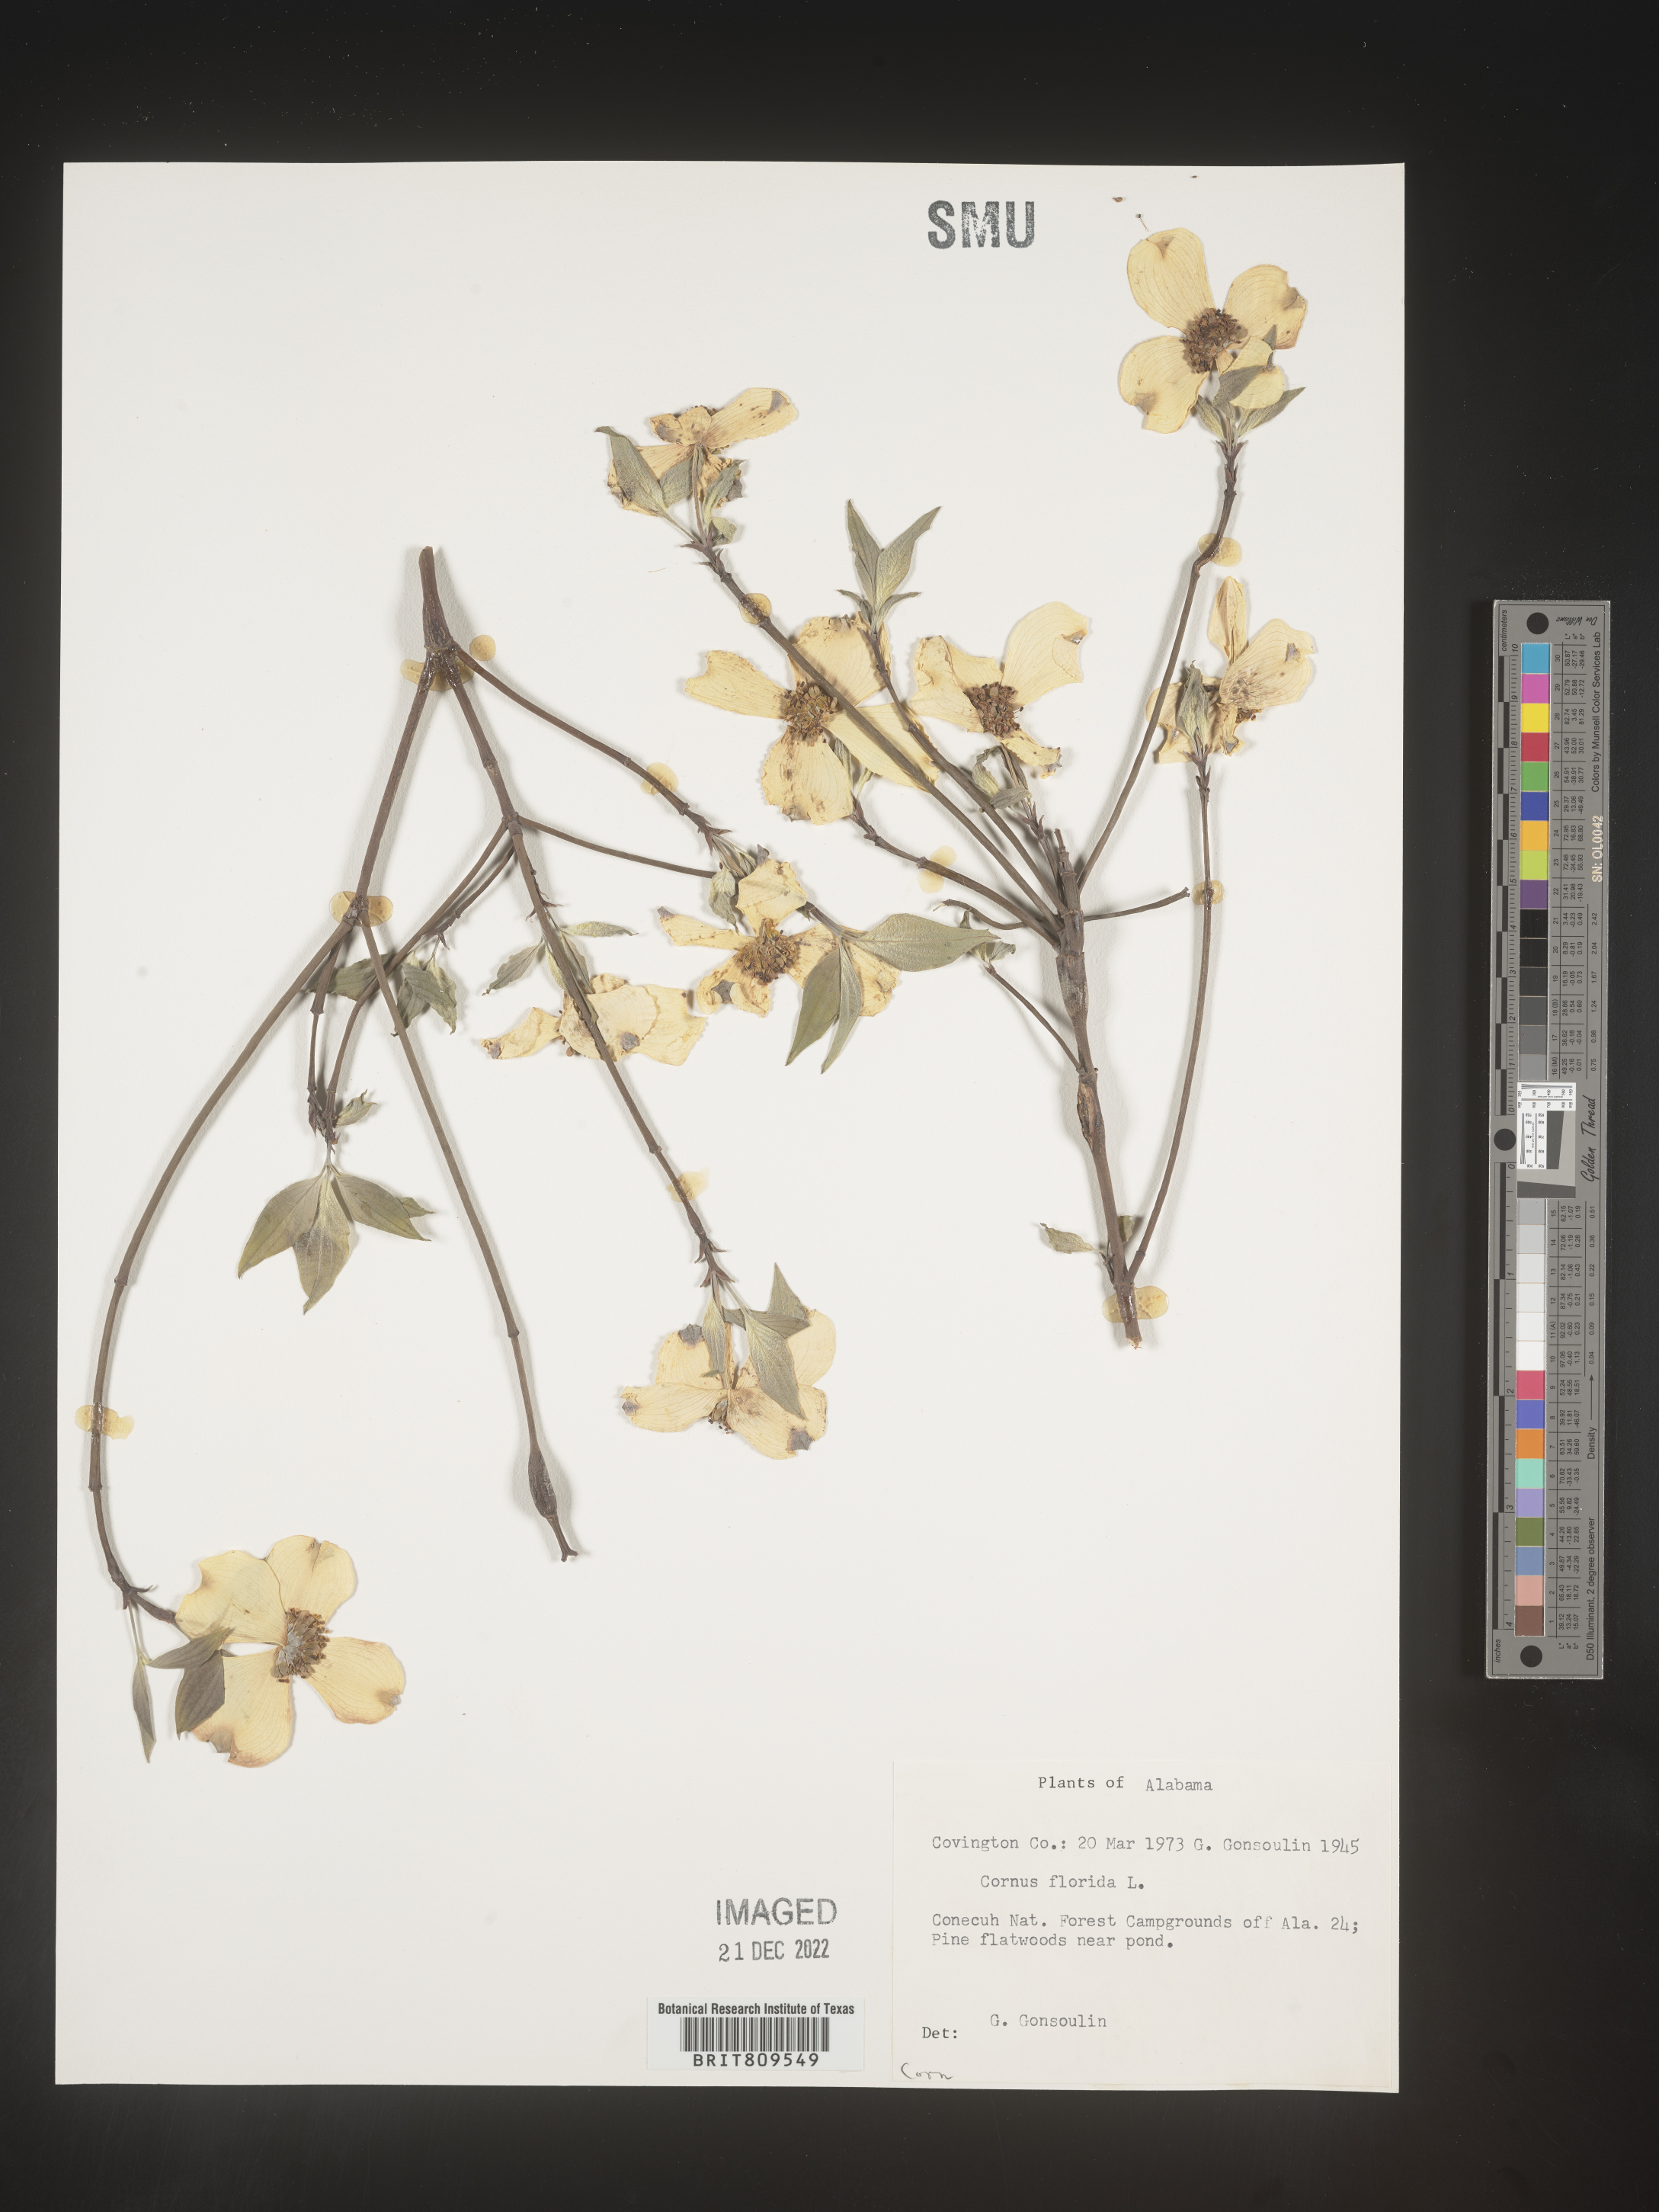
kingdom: Plantae
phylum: Tracheophyta
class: Magnoliopsida
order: Cornales
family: Cornaceae
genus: Cornus
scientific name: Cornus florida
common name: Flowering dogwood
